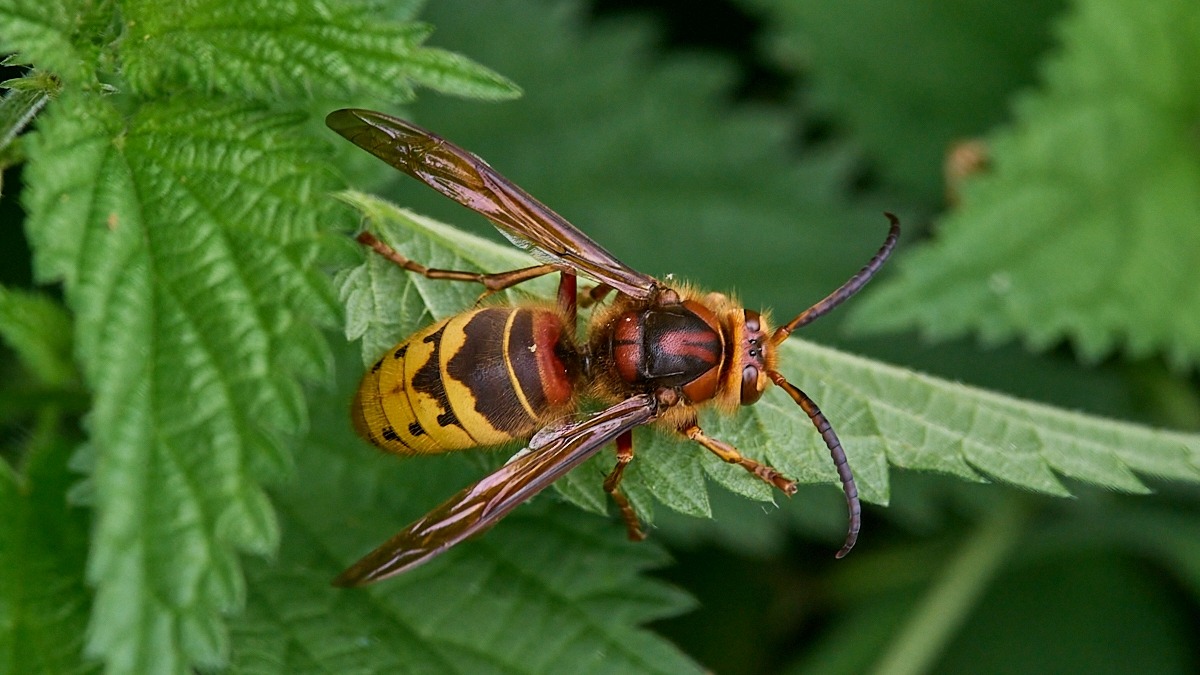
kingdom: Animalia
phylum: Arthropoda
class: Insecta
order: Hymenoptera
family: Vespidae
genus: Vespa
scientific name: Vespa crabro
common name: Stor gedehams
